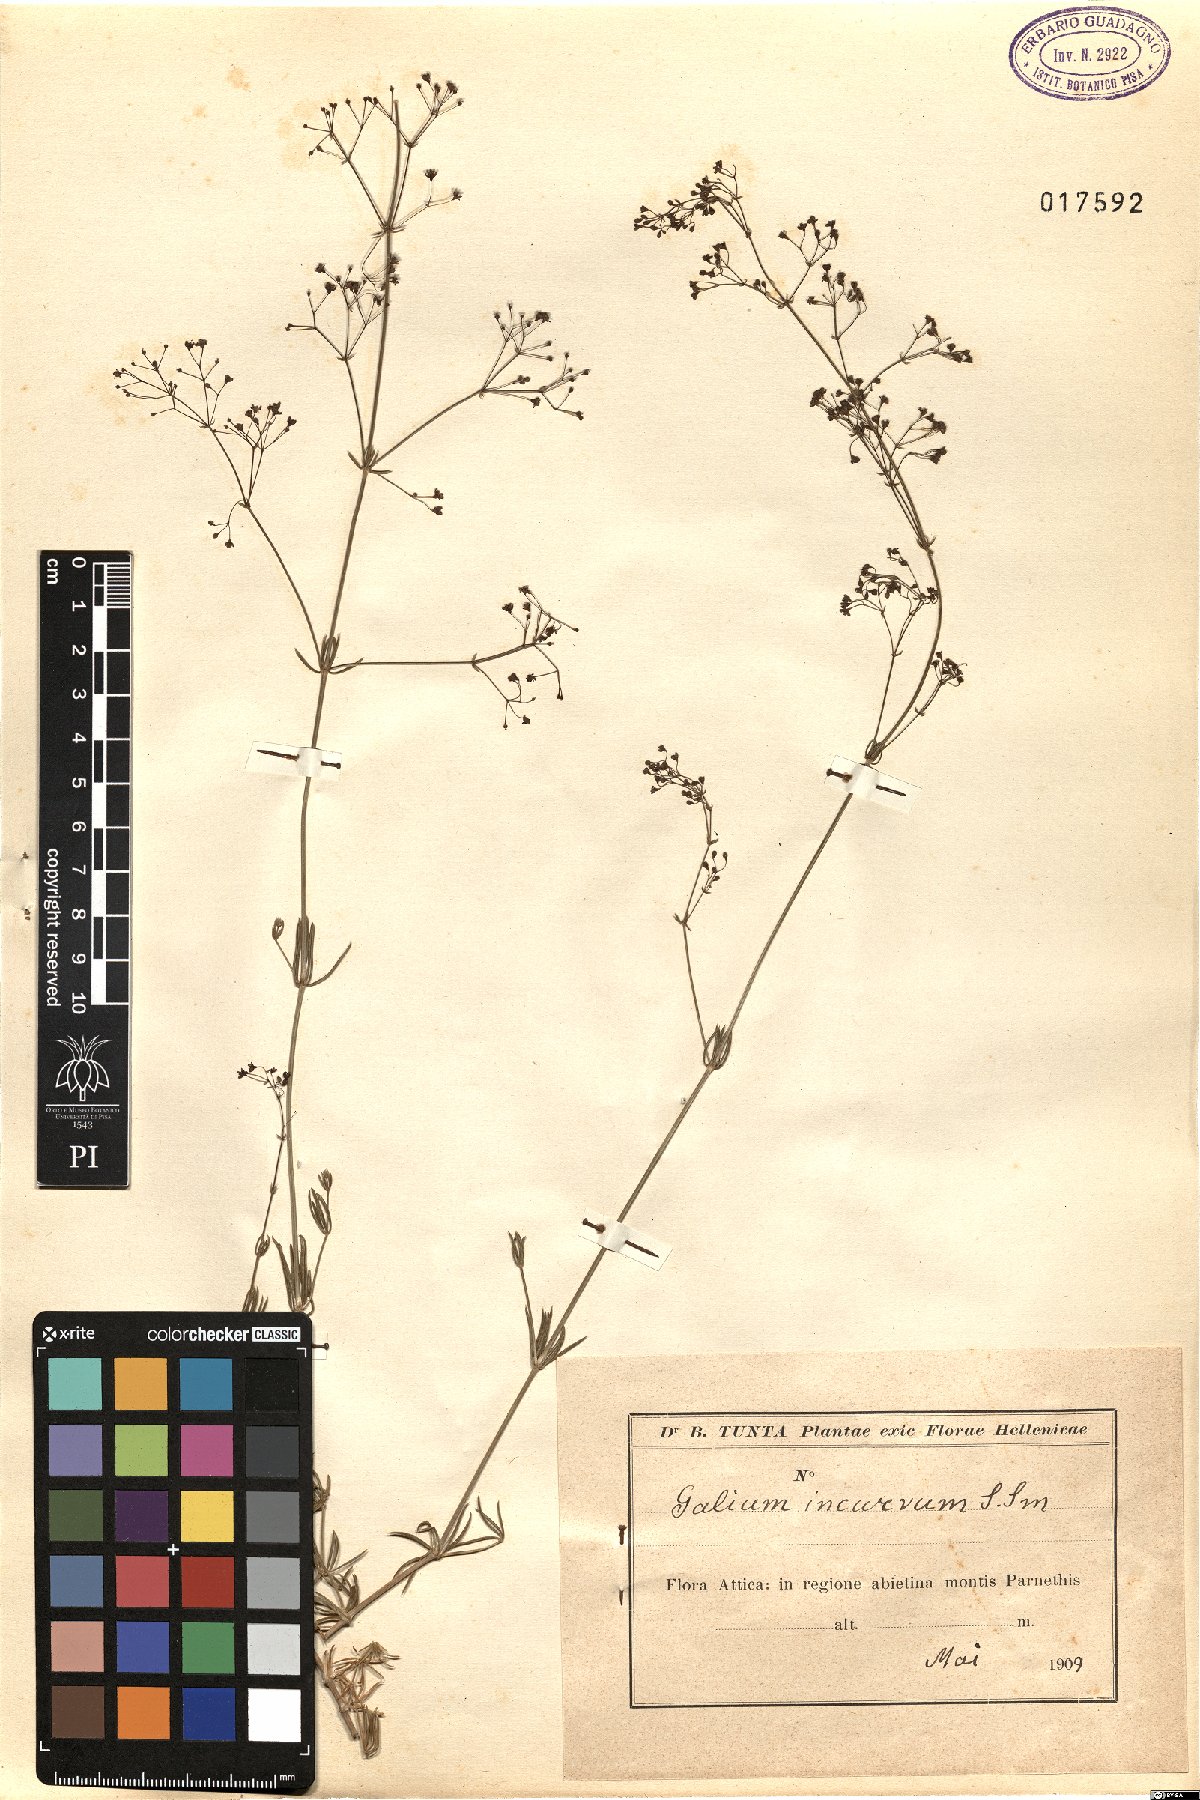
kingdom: Plantae
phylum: Tracheophyta
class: Magnoliopsida
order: Gentianales
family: Rubiaceae
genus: Galium
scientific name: Galium incurvum
